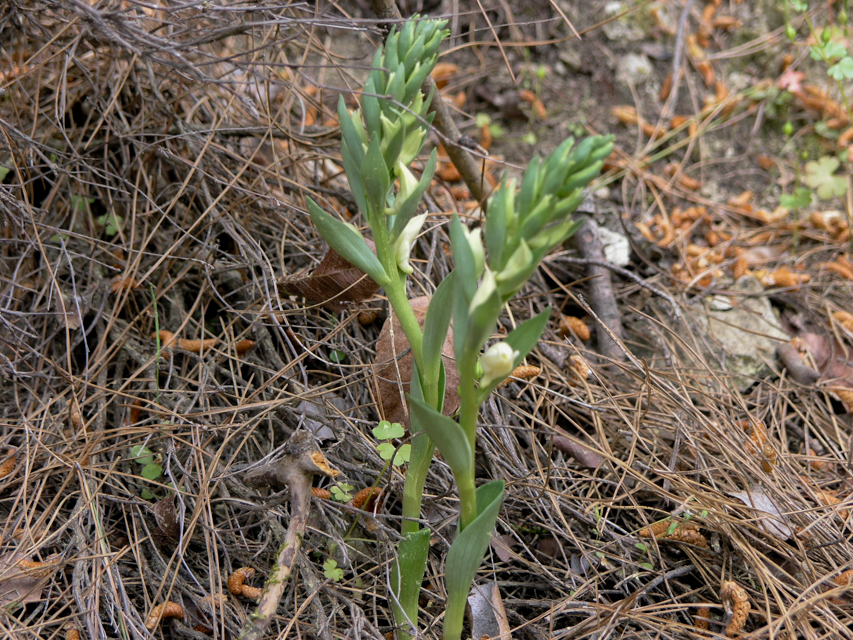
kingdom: Plantae
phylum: Tracheophyta
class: Liliopsida
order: Asparagales
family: Orchidaceae
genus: Cephalanthera
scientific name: Cephalanthera epipactoides
